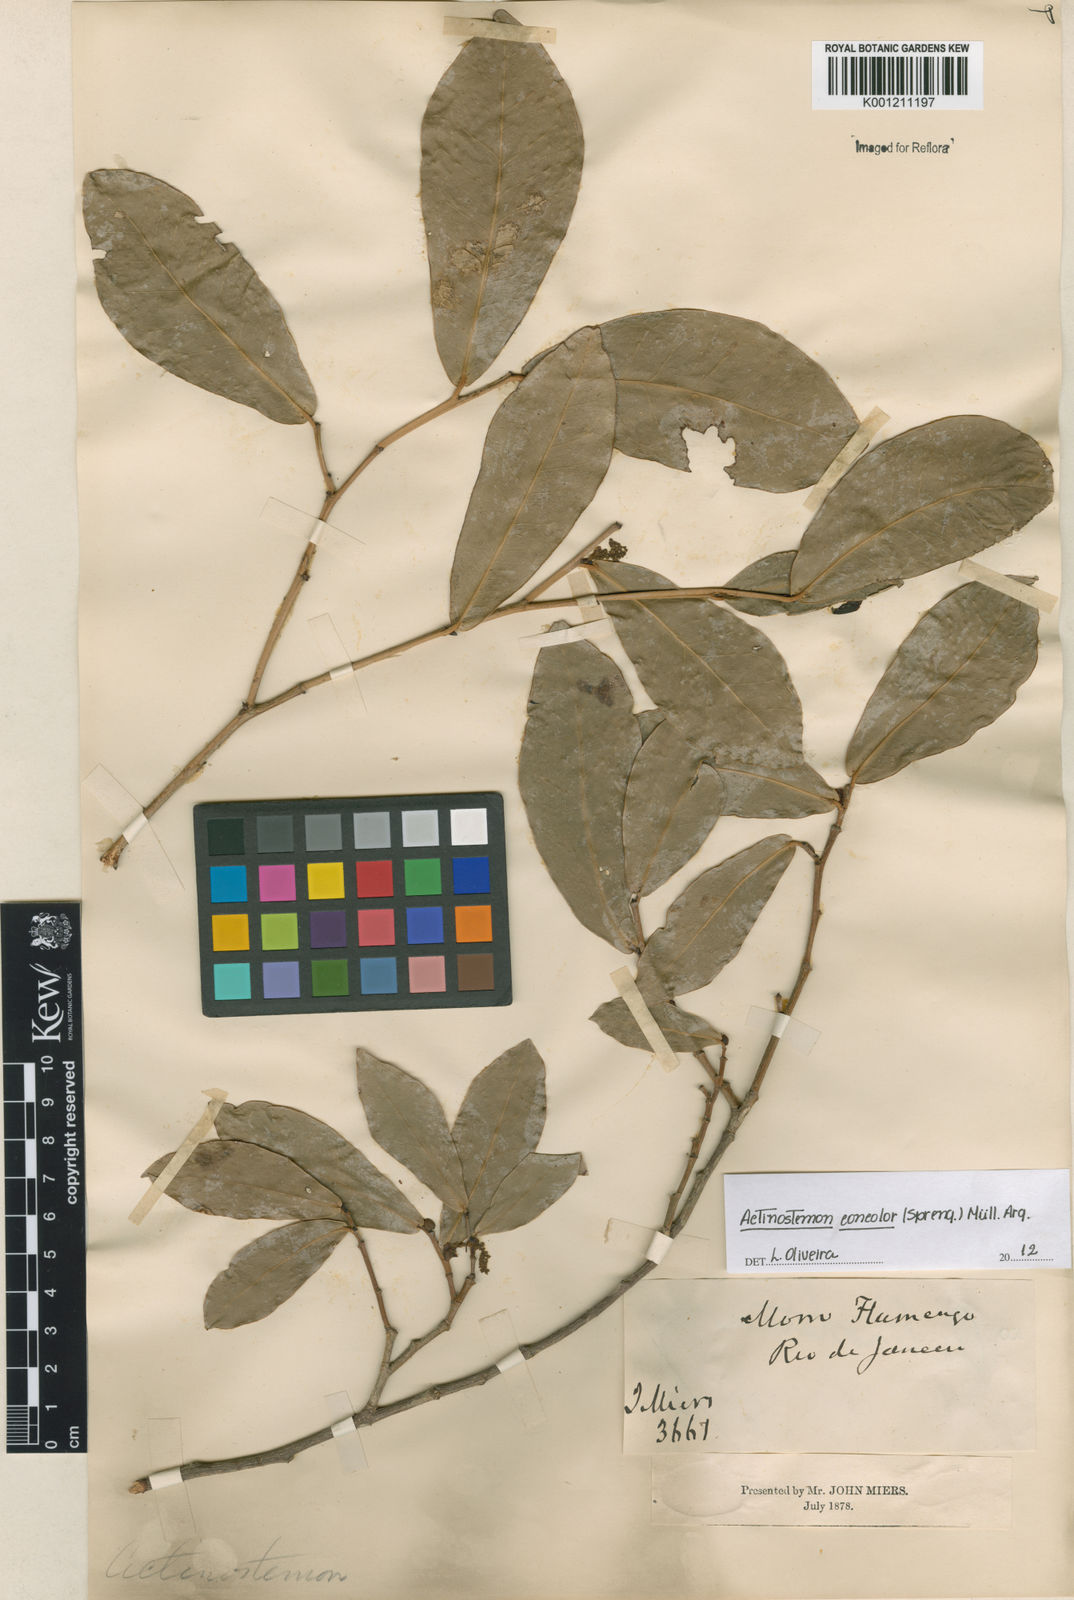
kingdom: Plantae
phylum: Tracheophyta
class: Magnoliopsida
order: Malpighiales
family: Euphorbiaceae
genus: Actinostemon
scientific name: Actinostemon
